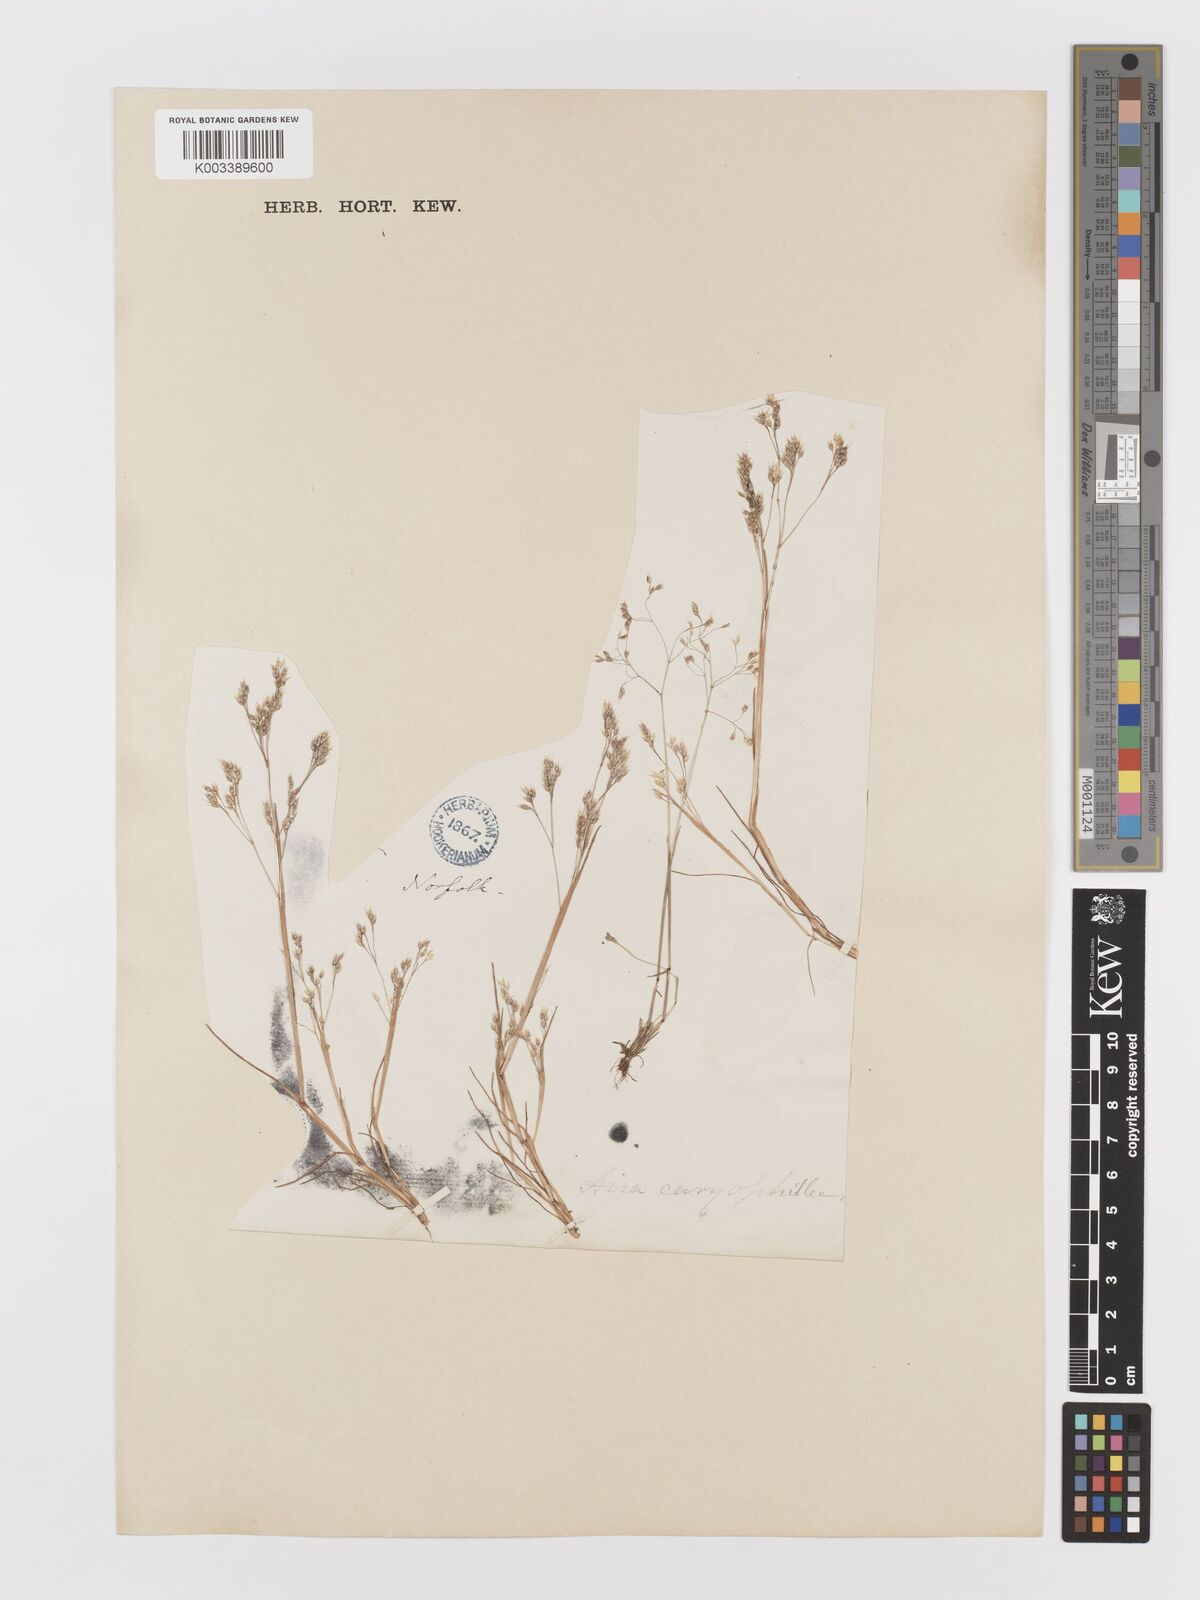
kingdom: Plantae
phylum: Tracheophyta
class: Liliopsida
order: Poales
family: Poaceae
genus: Aira
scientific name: Aira caryophyllea
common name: Silver hairgrass
